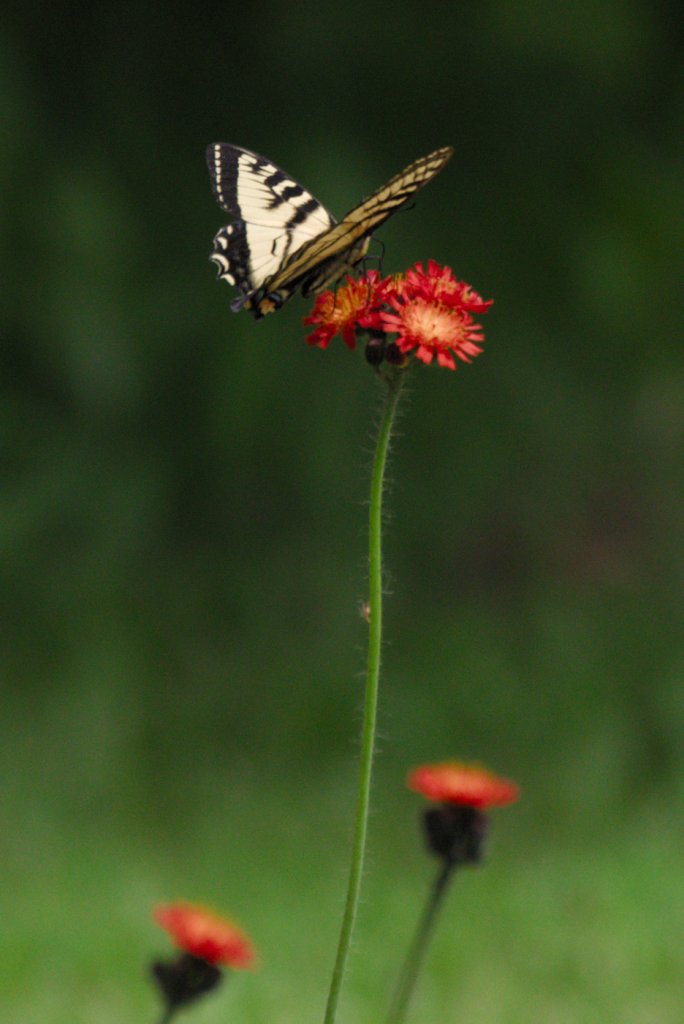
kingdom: Animalia
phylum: Arthropoda
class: Insecta
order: Lepidoptera
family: Papilionidae
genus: Pterourus
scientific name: Pterourus canadensis
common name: Canadian Tiger Swallowtail
